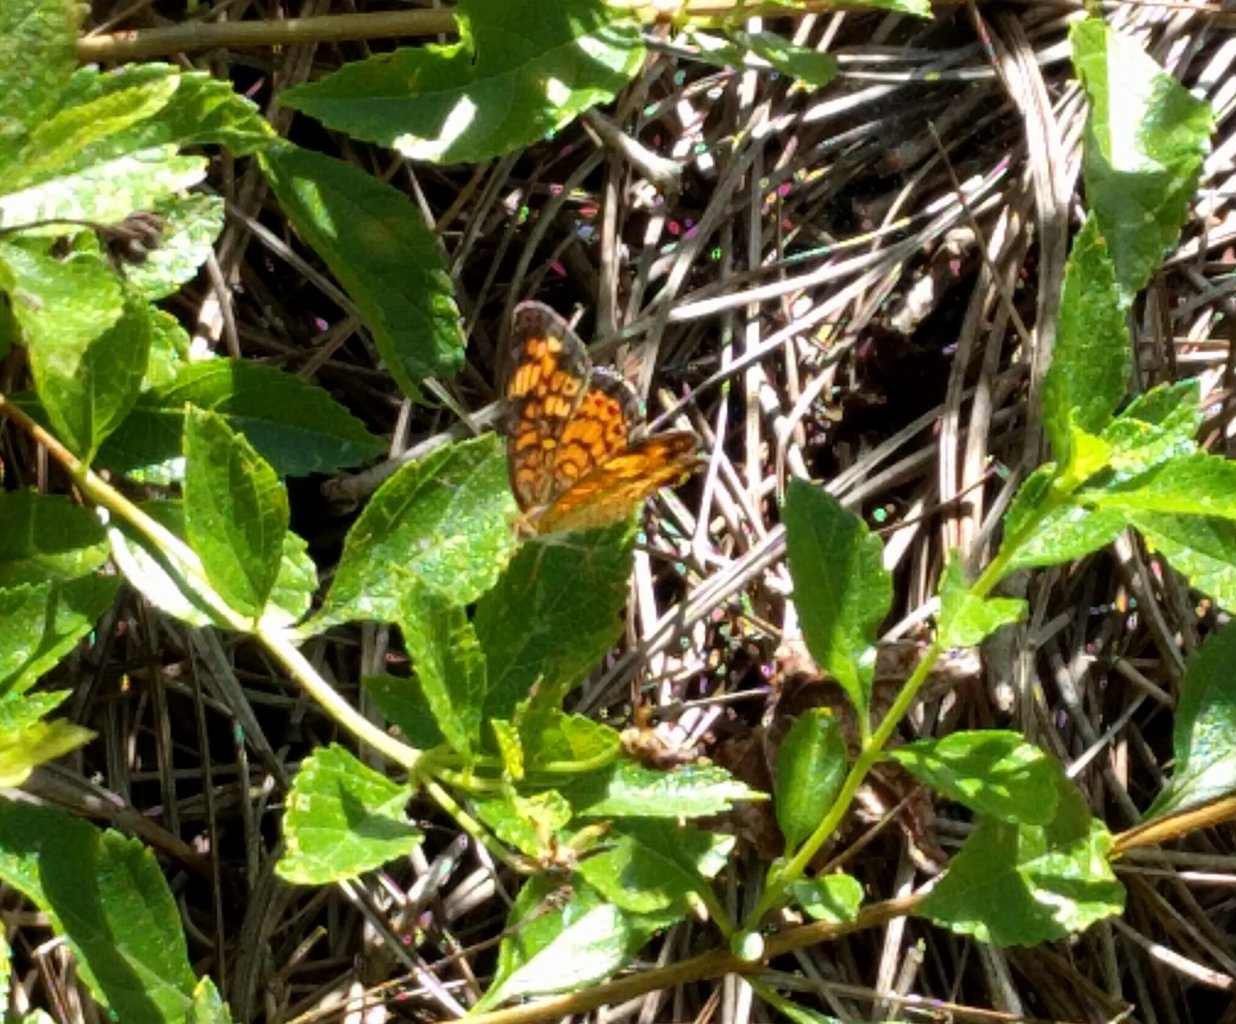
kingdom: Animalia
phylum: Arthropoda
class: Insecta
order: Lepidoptera
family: Nymphalidae
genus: Phyciodes
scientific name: Phyciodes tharos
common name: Pearl Crescent
